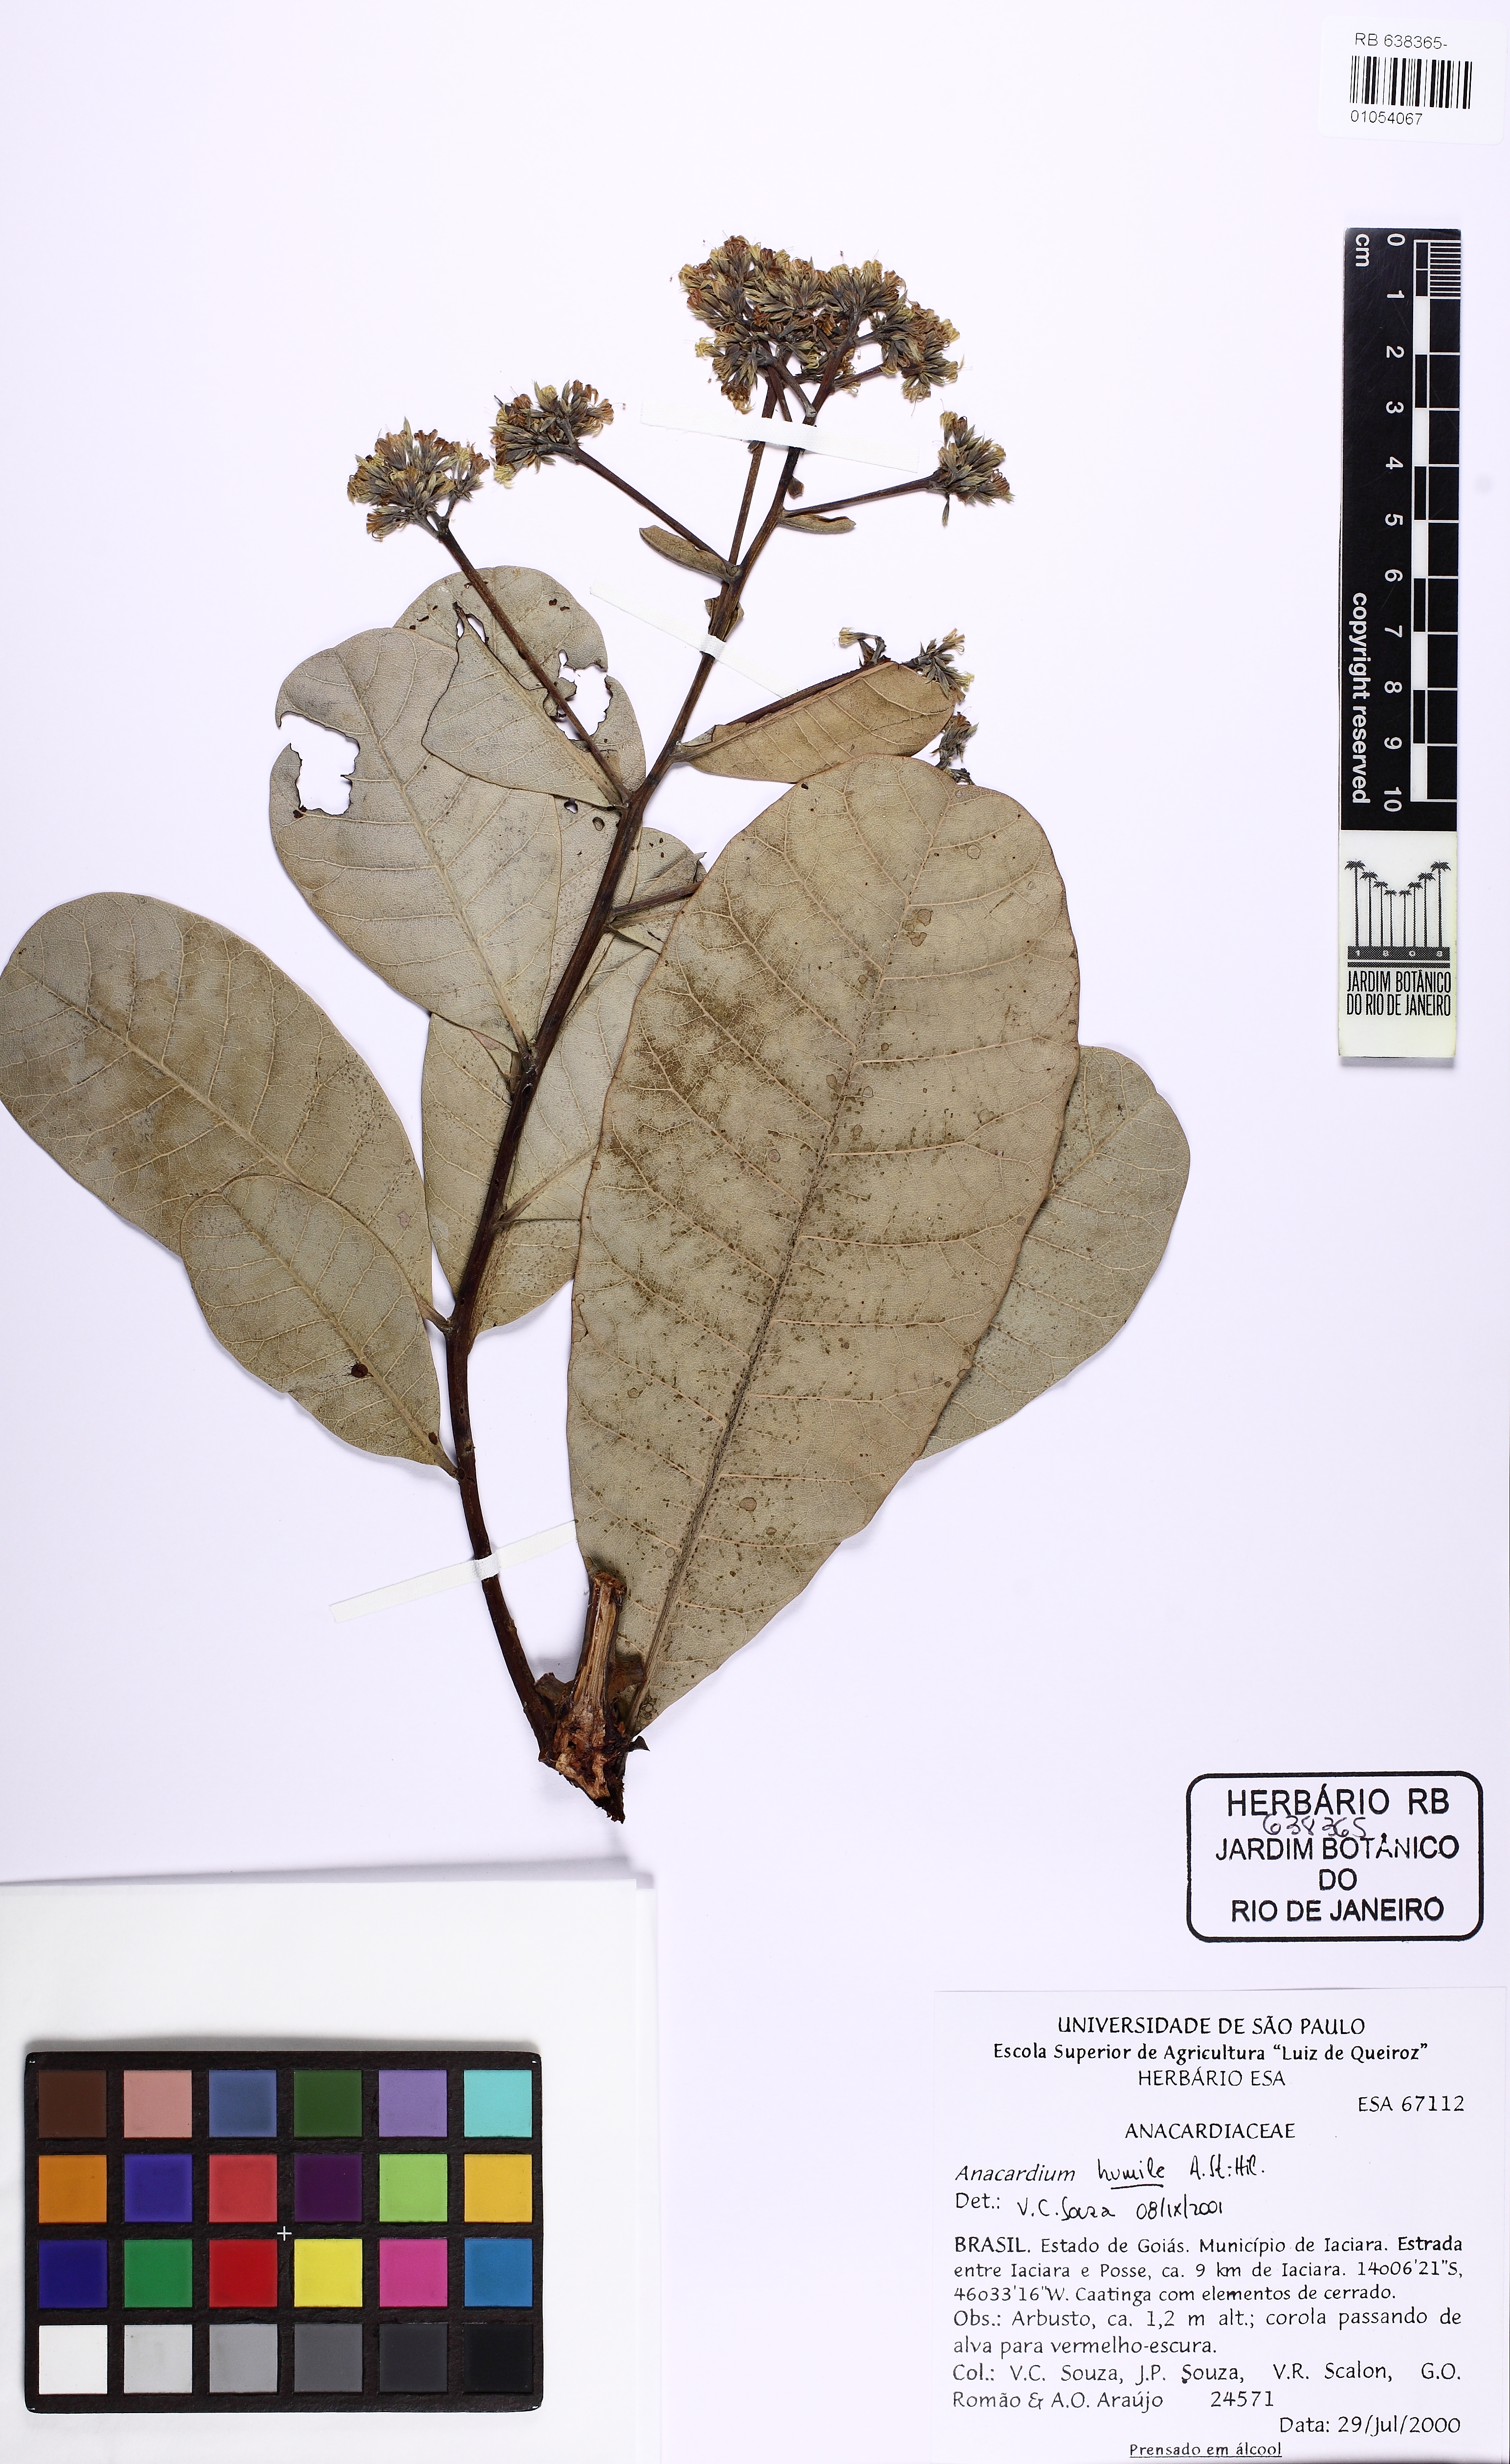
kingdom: Plantae
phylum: Tracheophyta
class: Magnoliopsida
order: Sapindales
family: Anacardiaceae
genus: Anacardium
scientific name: Anacardium humile
